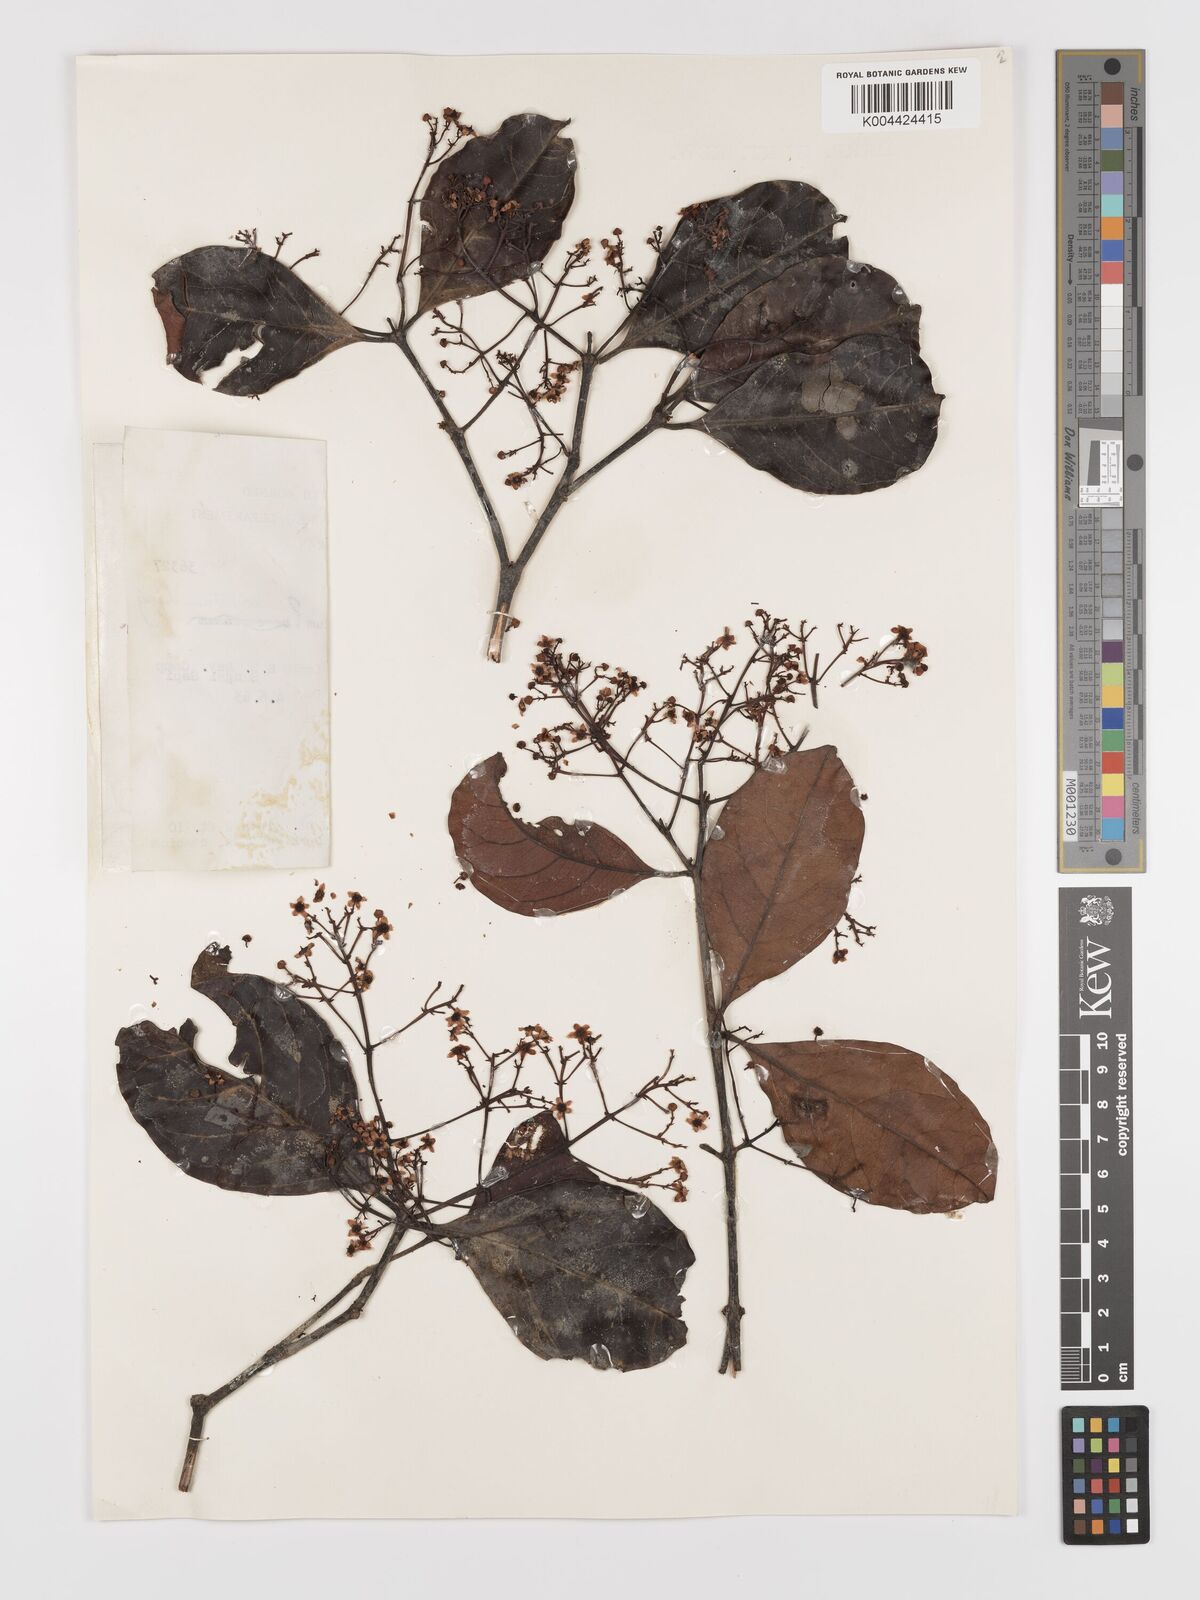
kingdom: Plantae
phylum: Tracheophyta
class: Magnoliopsida
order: Celastrales
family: Celastraceae
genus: Lophopetalum
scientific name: Lophopetalum
